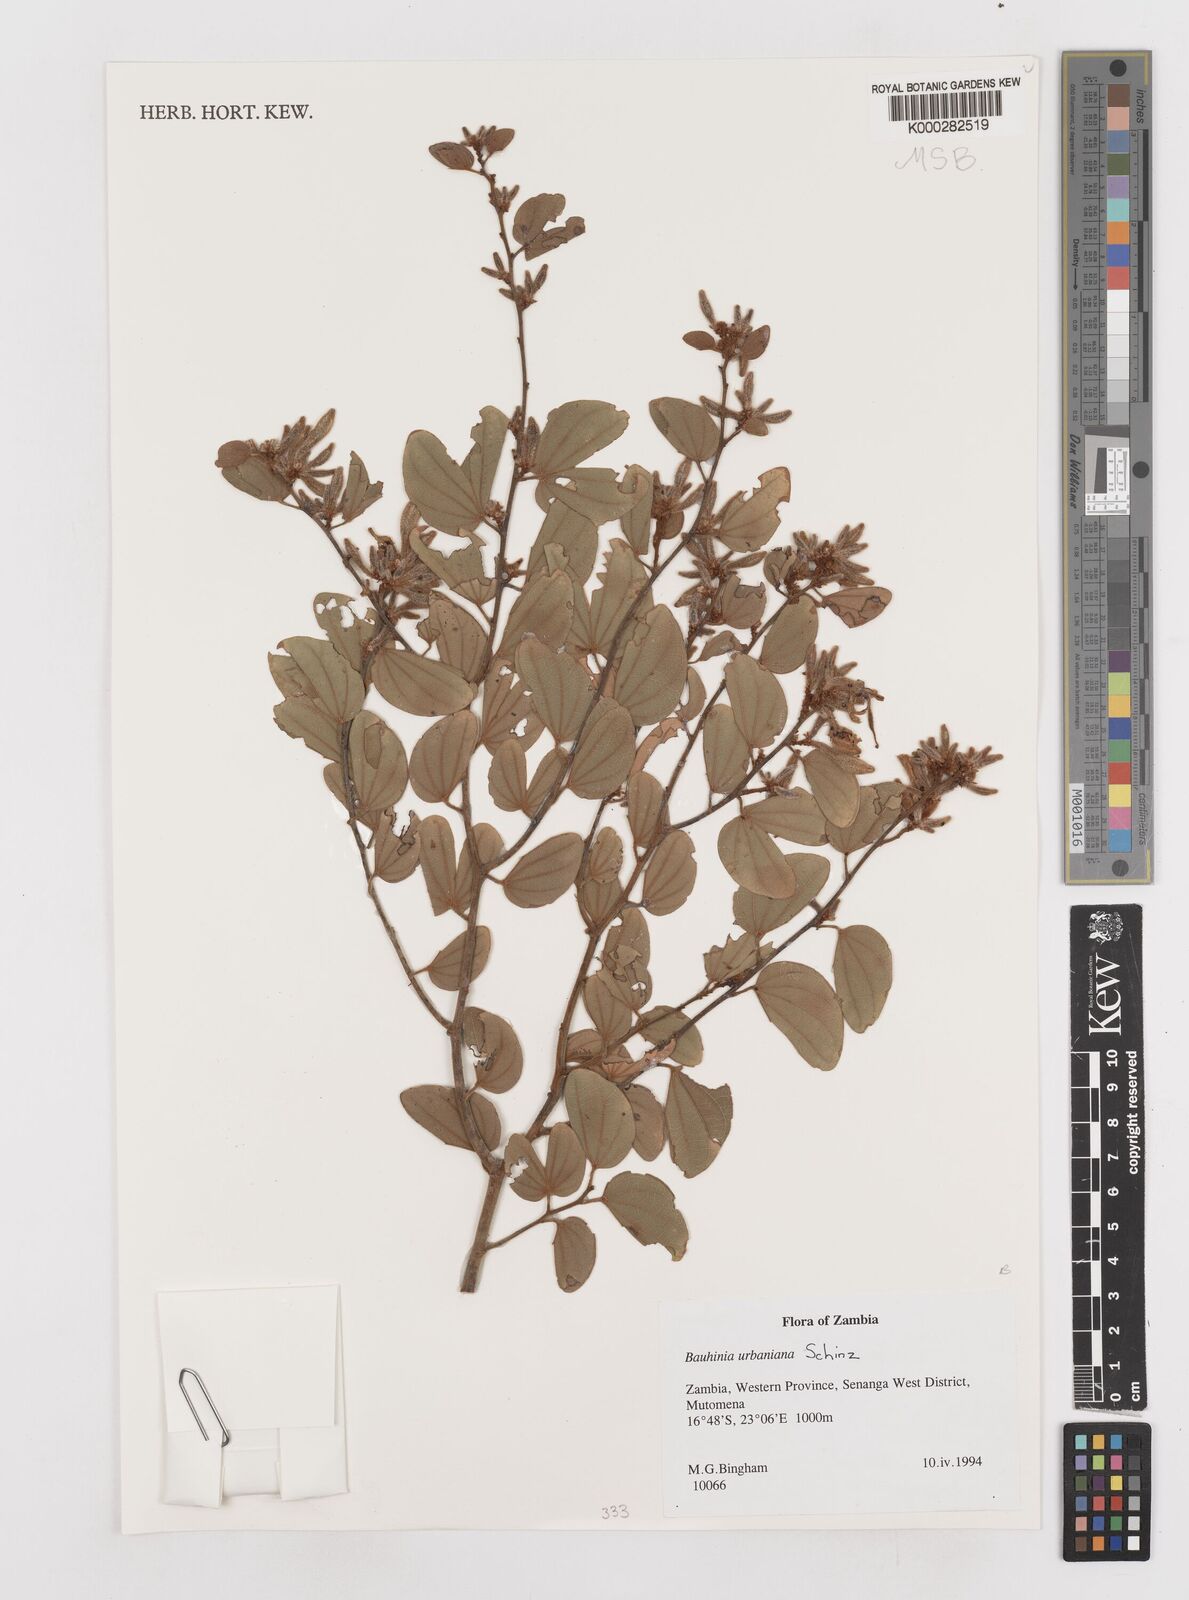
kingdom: Plantae
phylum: Tracheophyta
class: Magnoliopsida
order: Fabales
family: Fabaceae
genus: Bauhinia
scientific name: Bauhinia urbaniana
